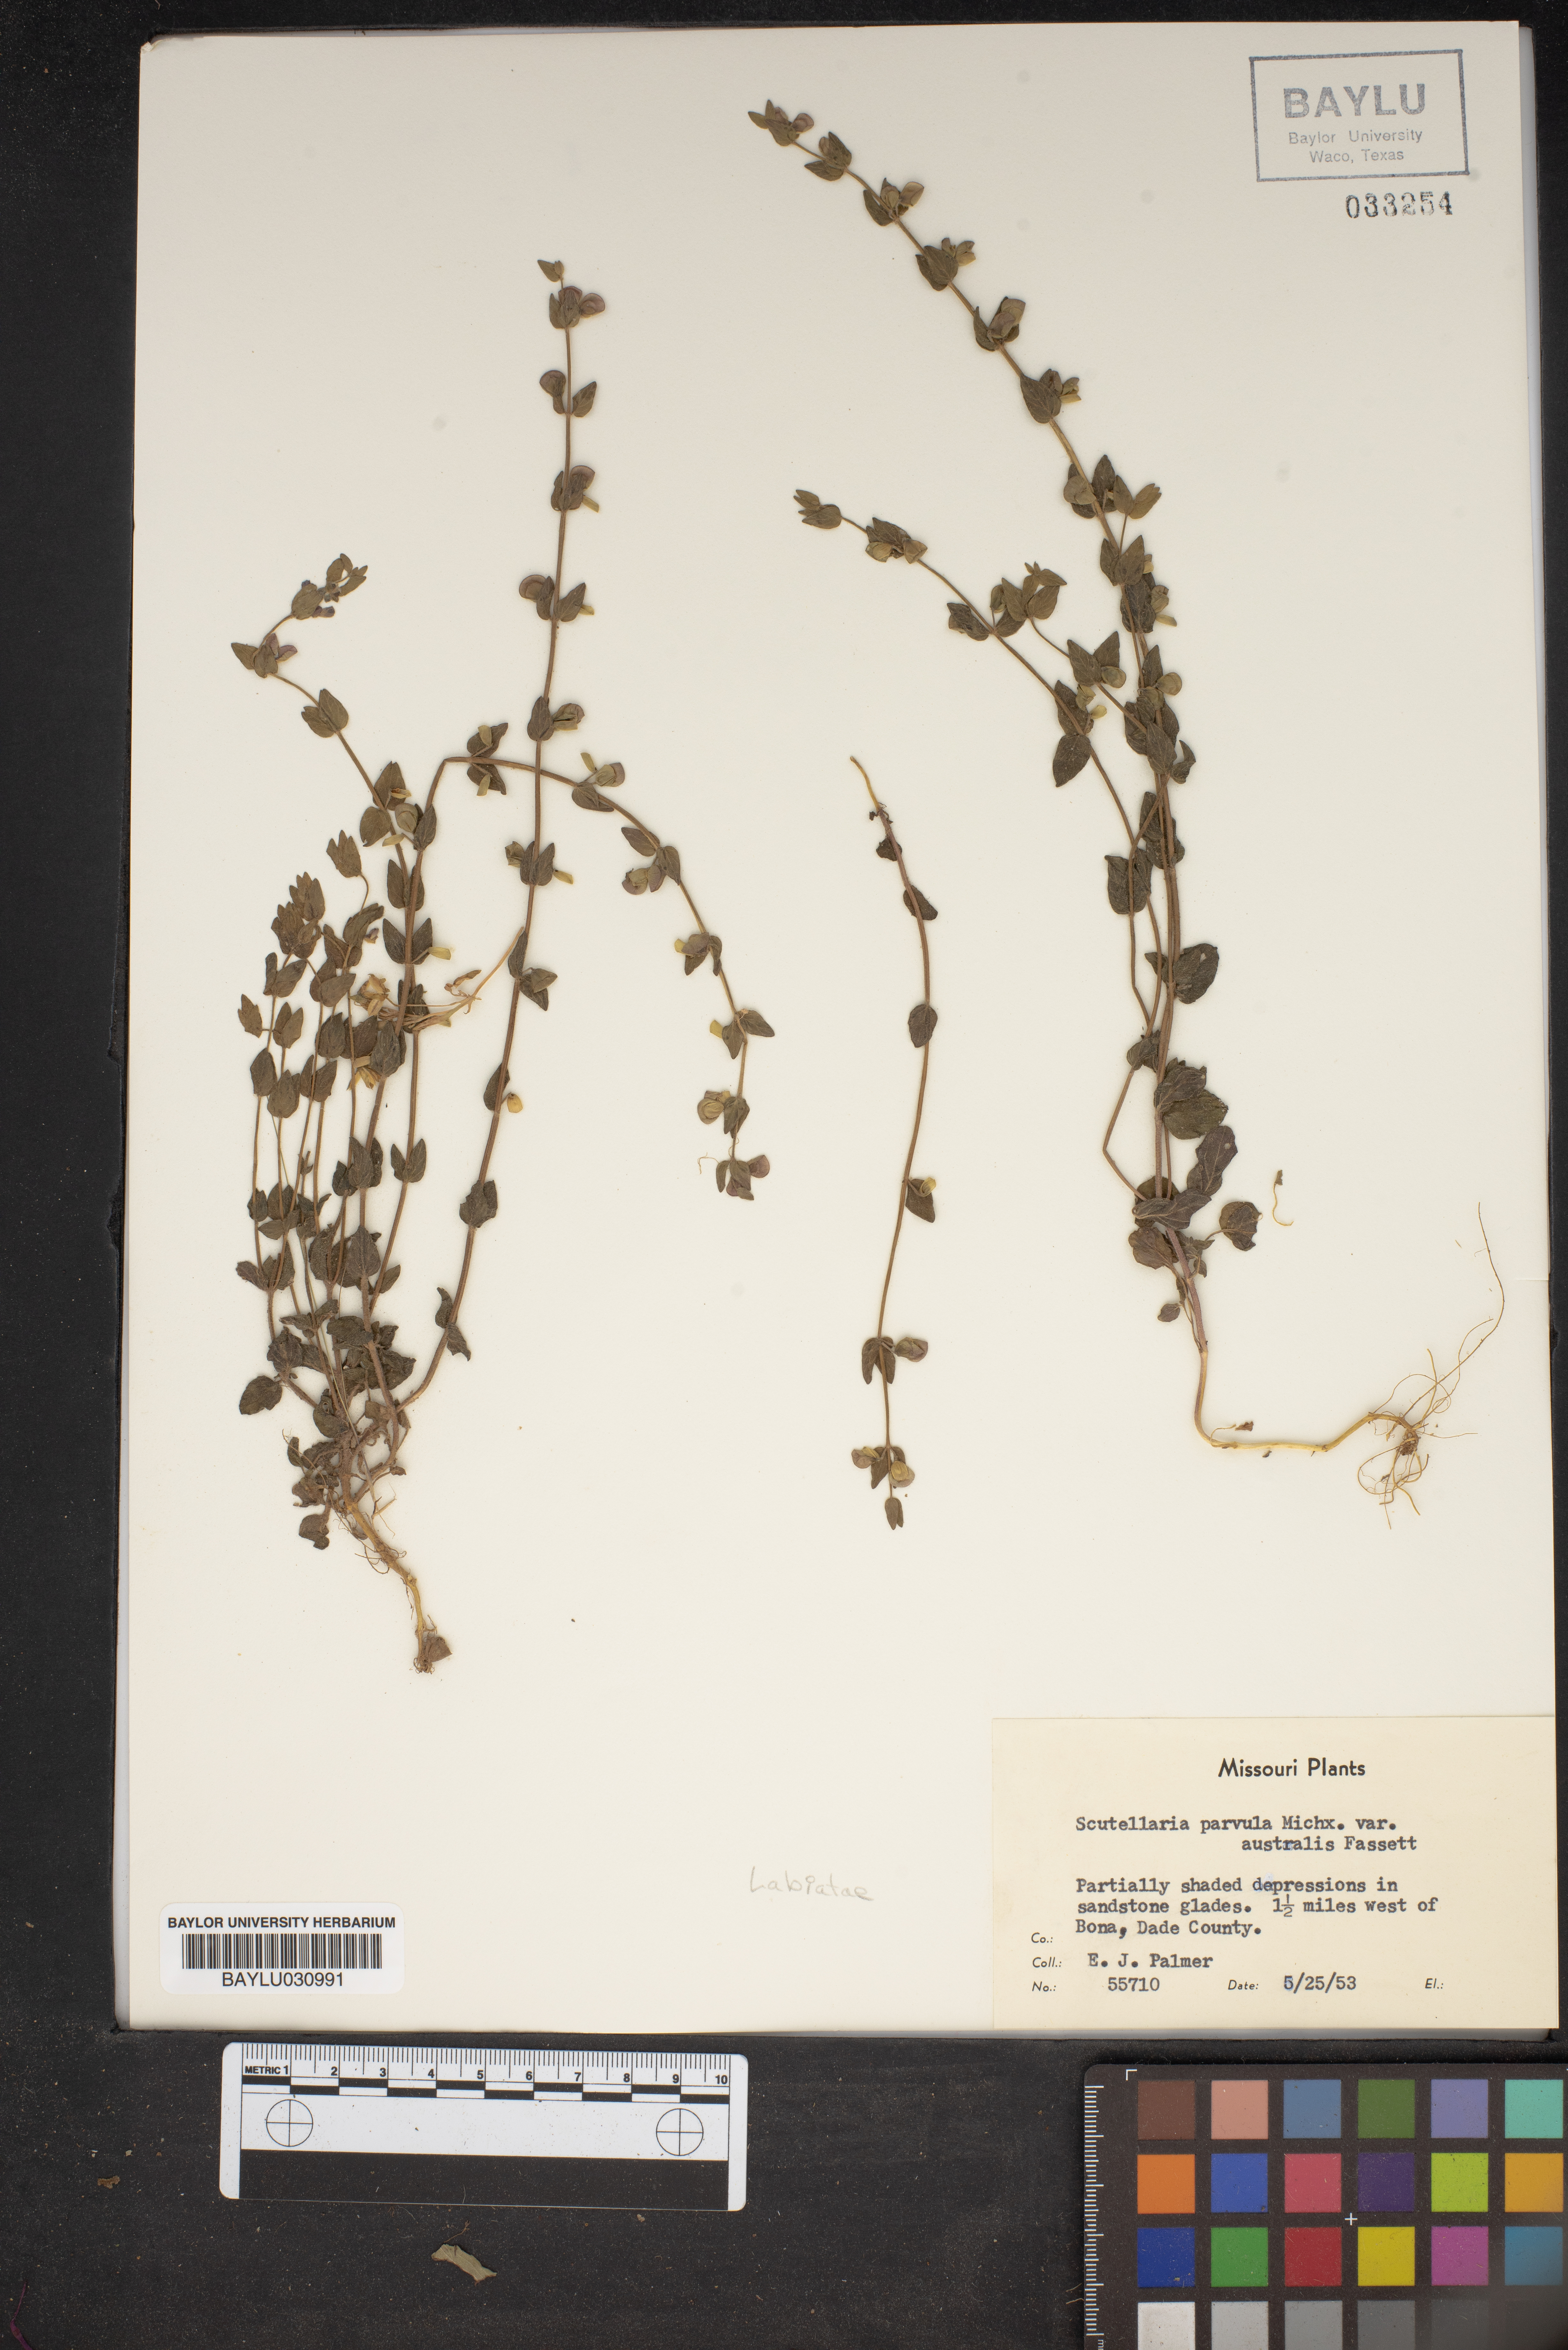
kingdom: Plantae
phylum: Tracheophyta
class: Magnoliopsida
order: Lamiales
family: Lamiaceae
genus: Scutellaria
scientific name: Scutellaria parvula
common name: Little scullcap
